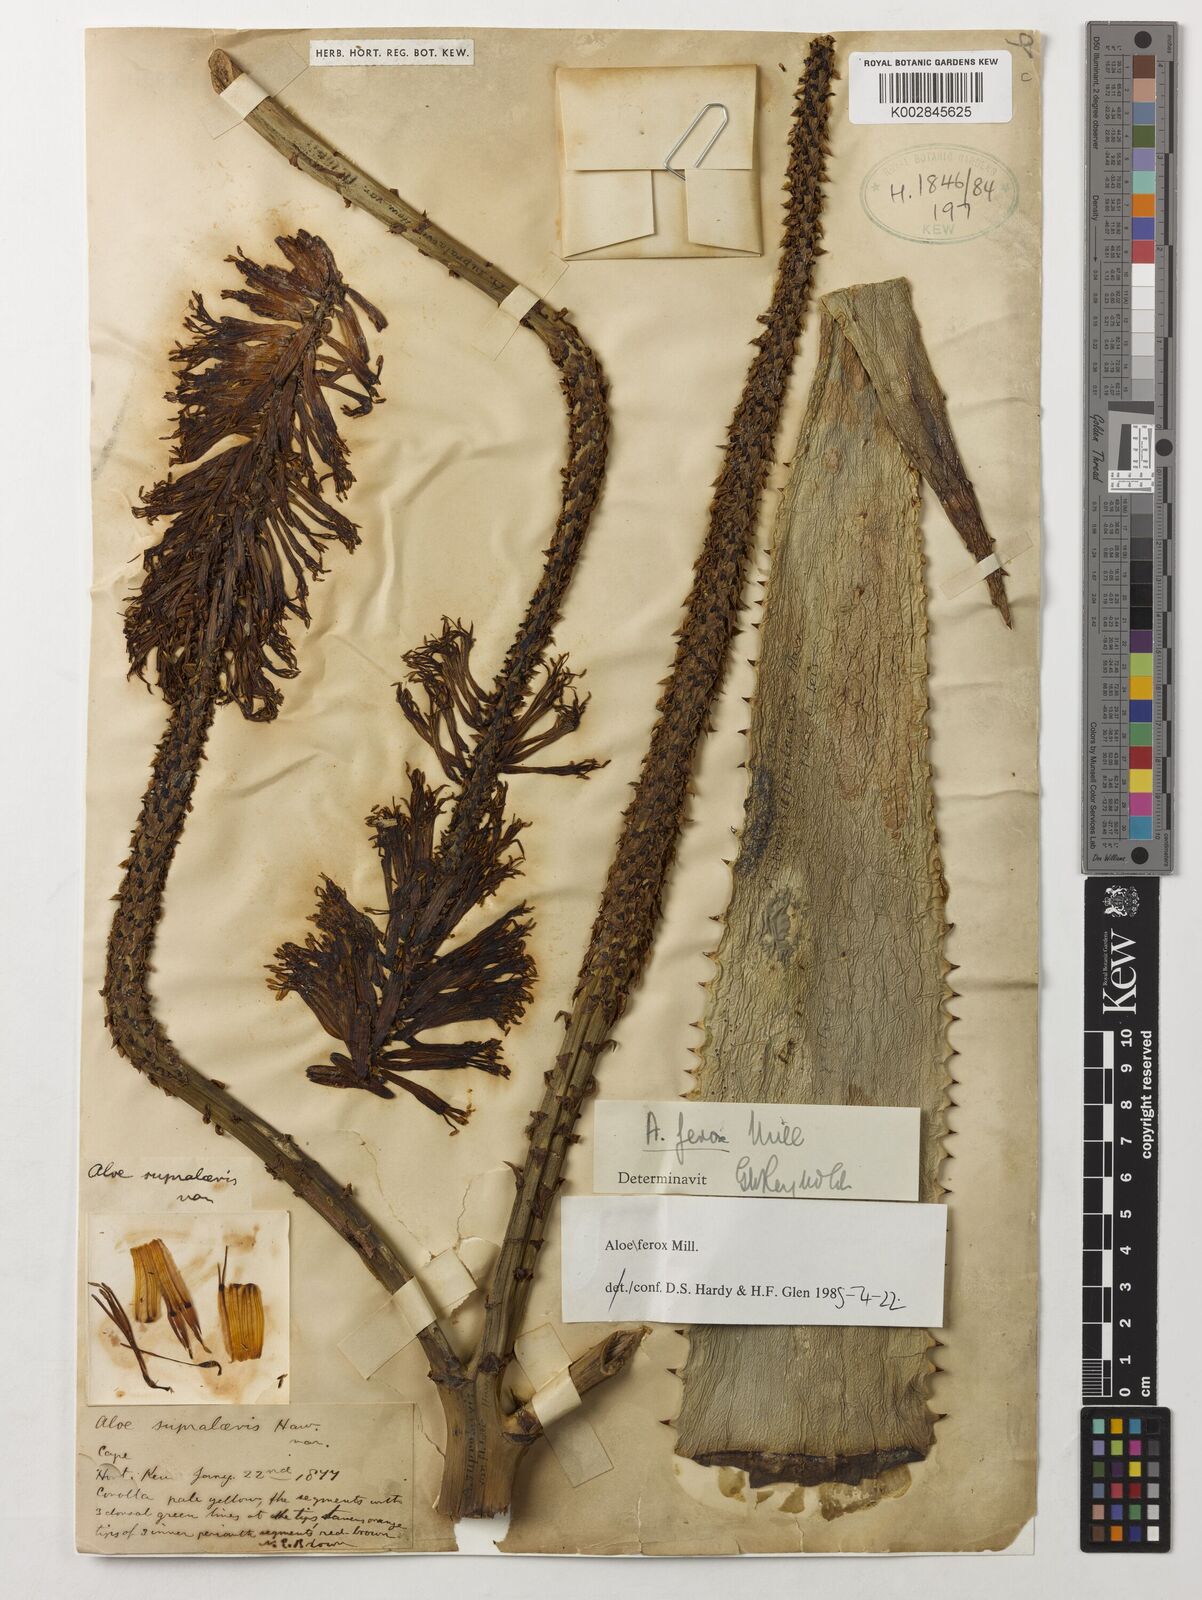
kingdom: Plantae
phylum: Tracheophyta
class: Liliopsida
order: Asparagales
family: Asphodelaceae
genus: Aloe
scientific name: Aloe ferox
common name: Bitter aloe
